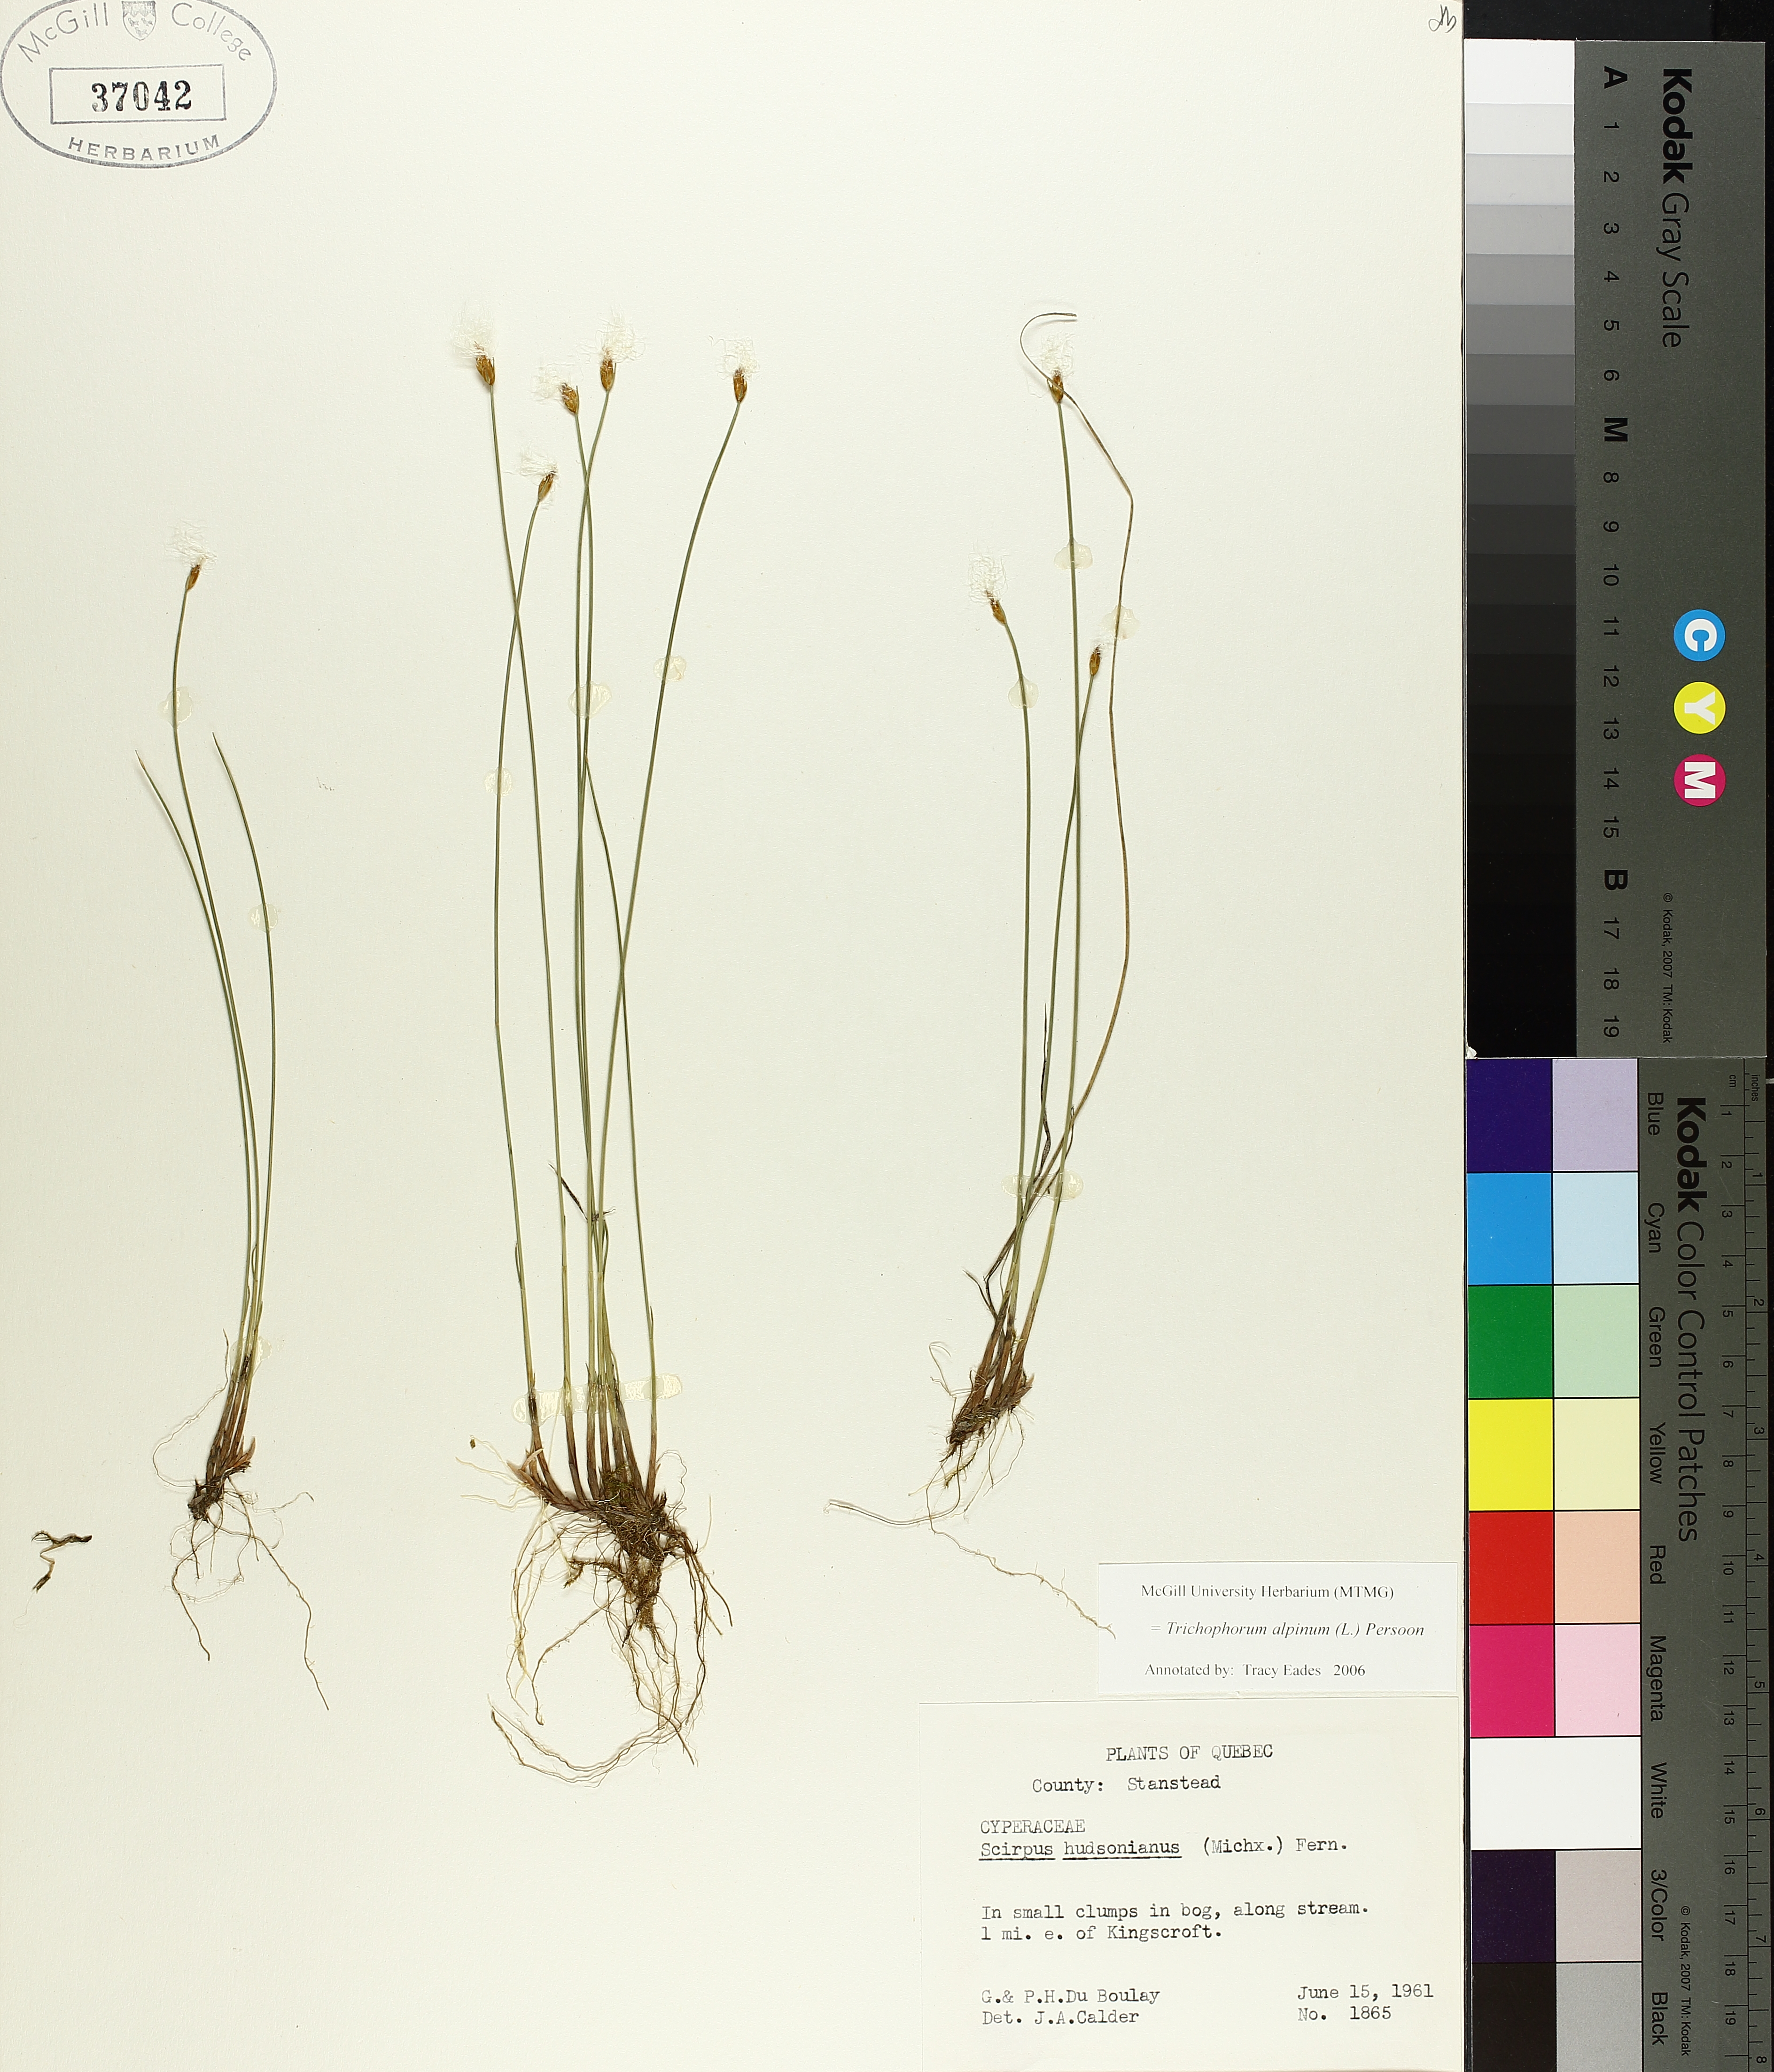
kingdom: Plantae
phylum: Tracheophyta
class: Liliopsida
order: Poales
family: Cyperaceae
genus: Trichophorum
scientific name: Trichophorum alpinum
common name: Alpine bulrush
